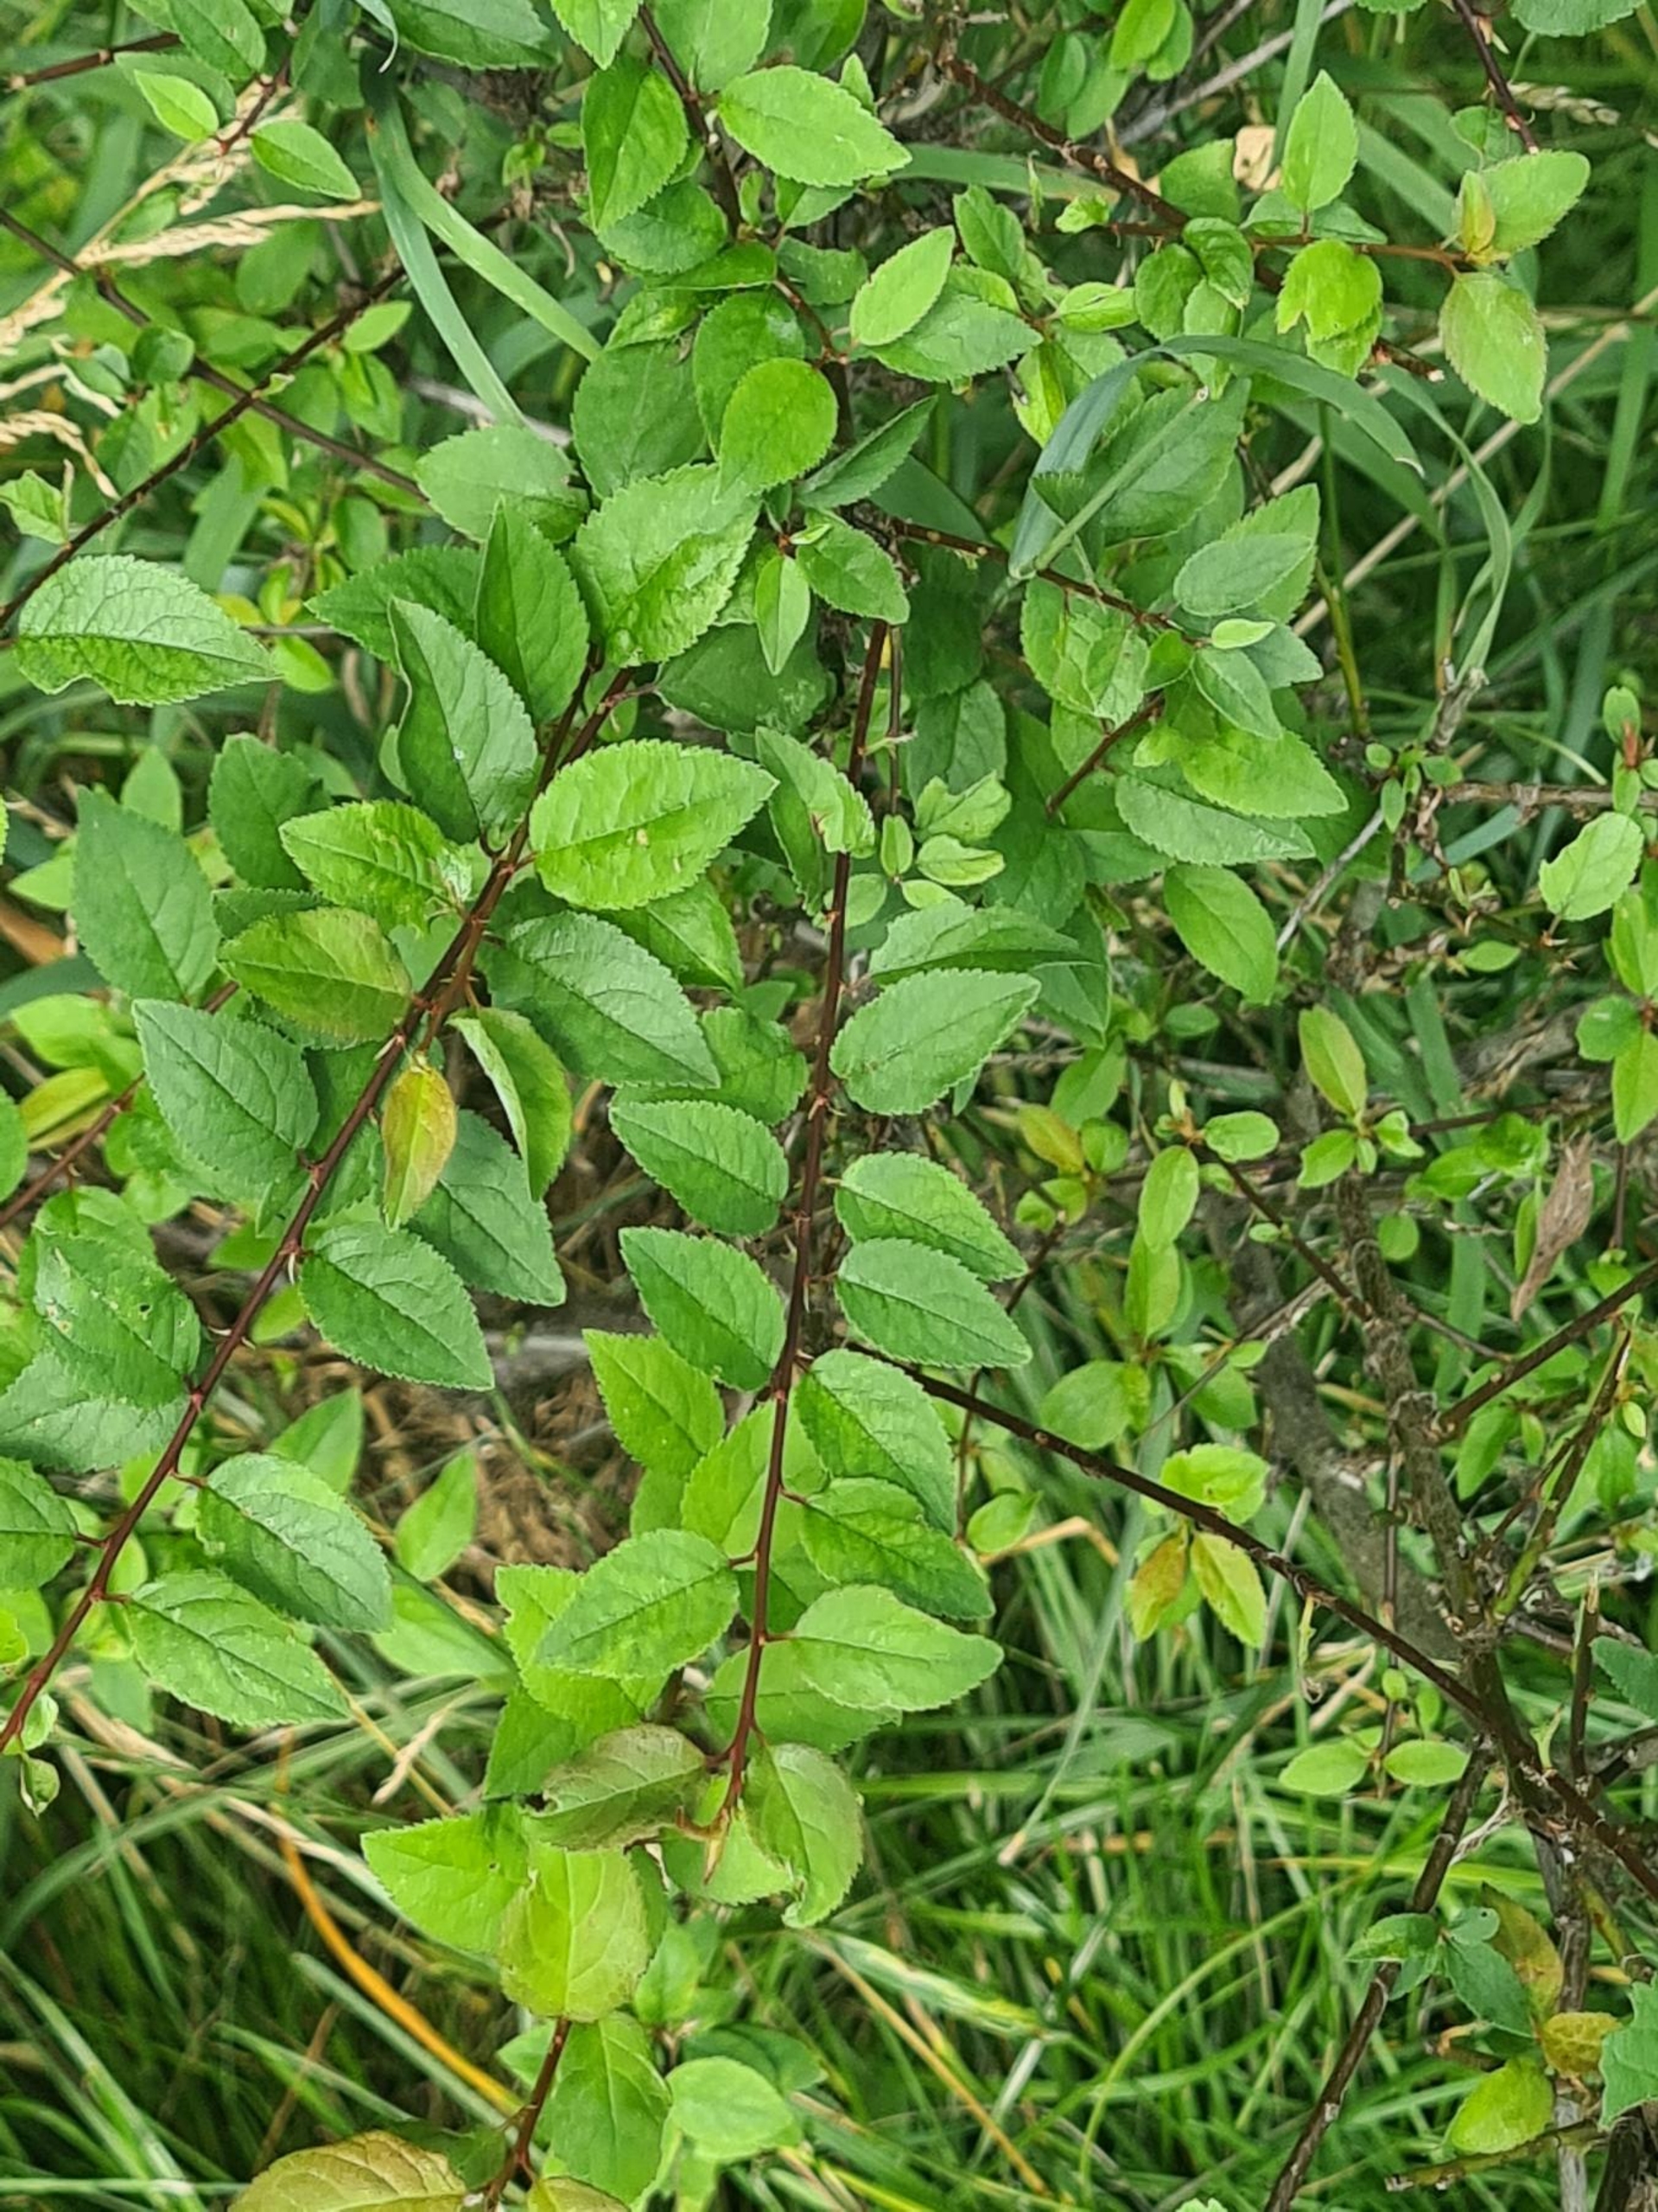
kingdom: Plantae
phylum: Tracheophyta
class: Magnoliopsida
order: Rosales
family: Rosaceae
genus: Prunus
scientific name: Prunus cerasifera
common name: Mirabel
